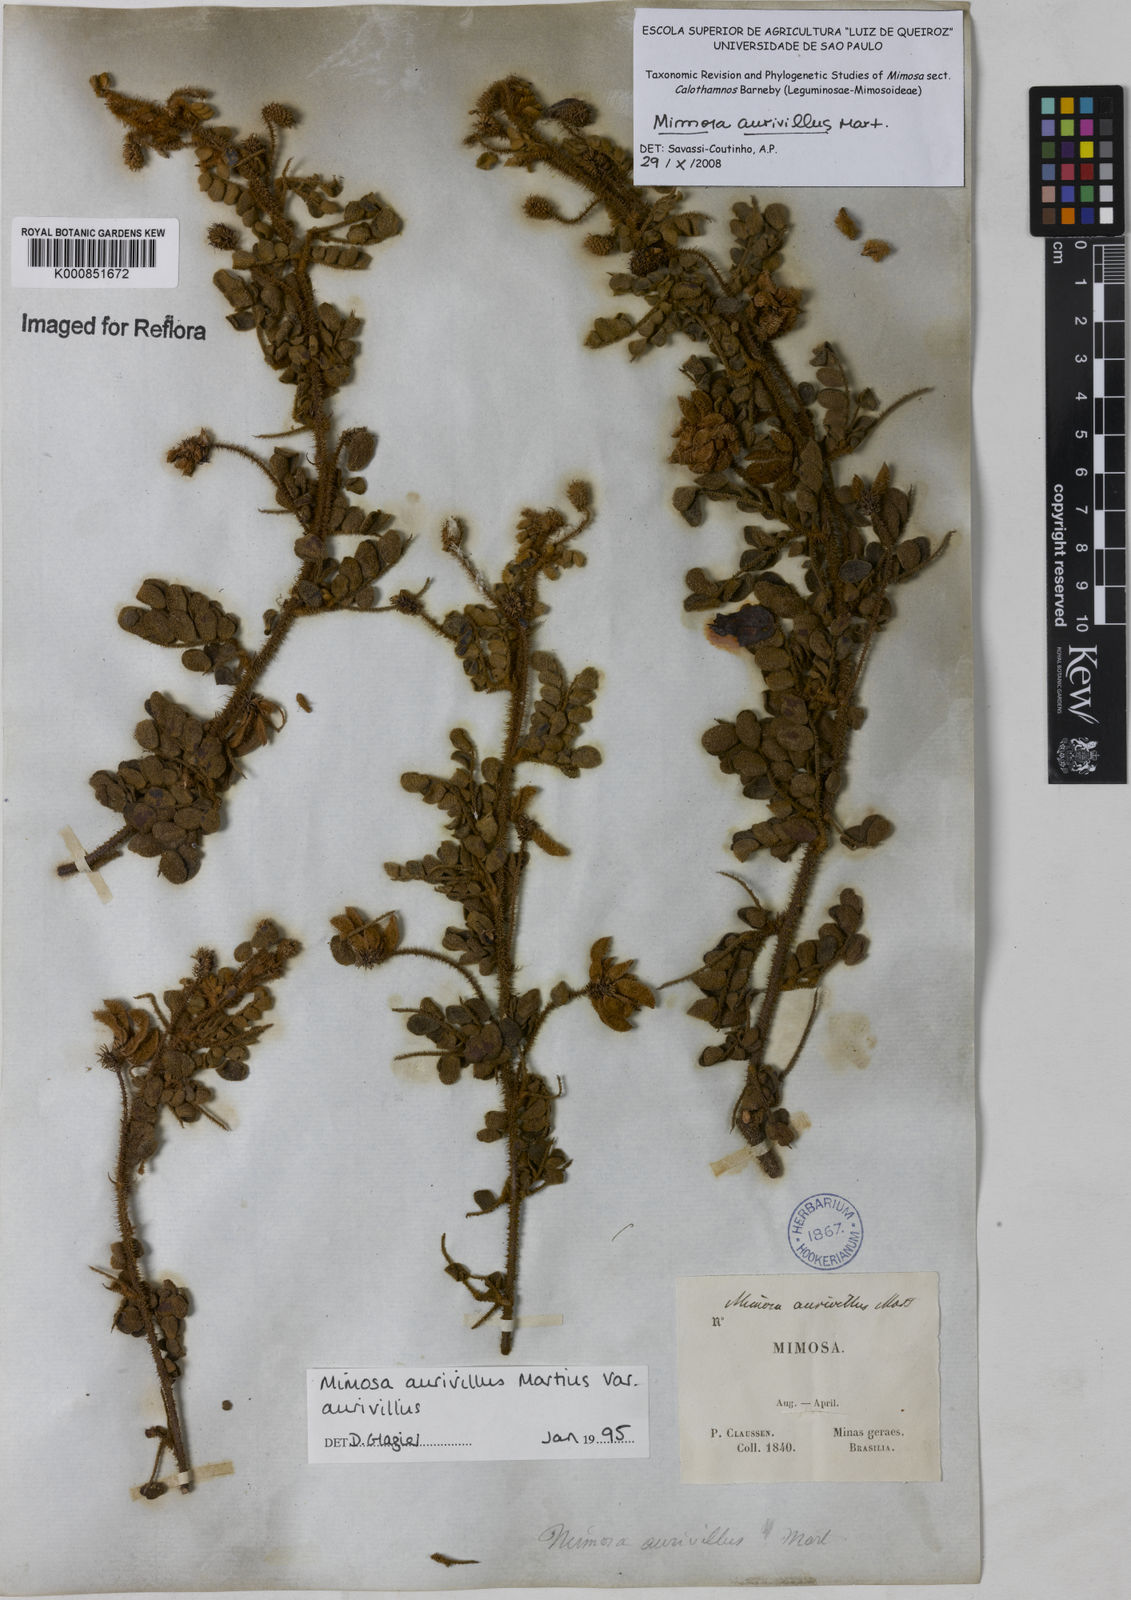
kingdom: Plantae
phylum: Tracheophyta
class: Magnoliopsida
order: Fabales
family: Fabaceae
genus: Mimosa
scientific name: Mimosa aurivillus
